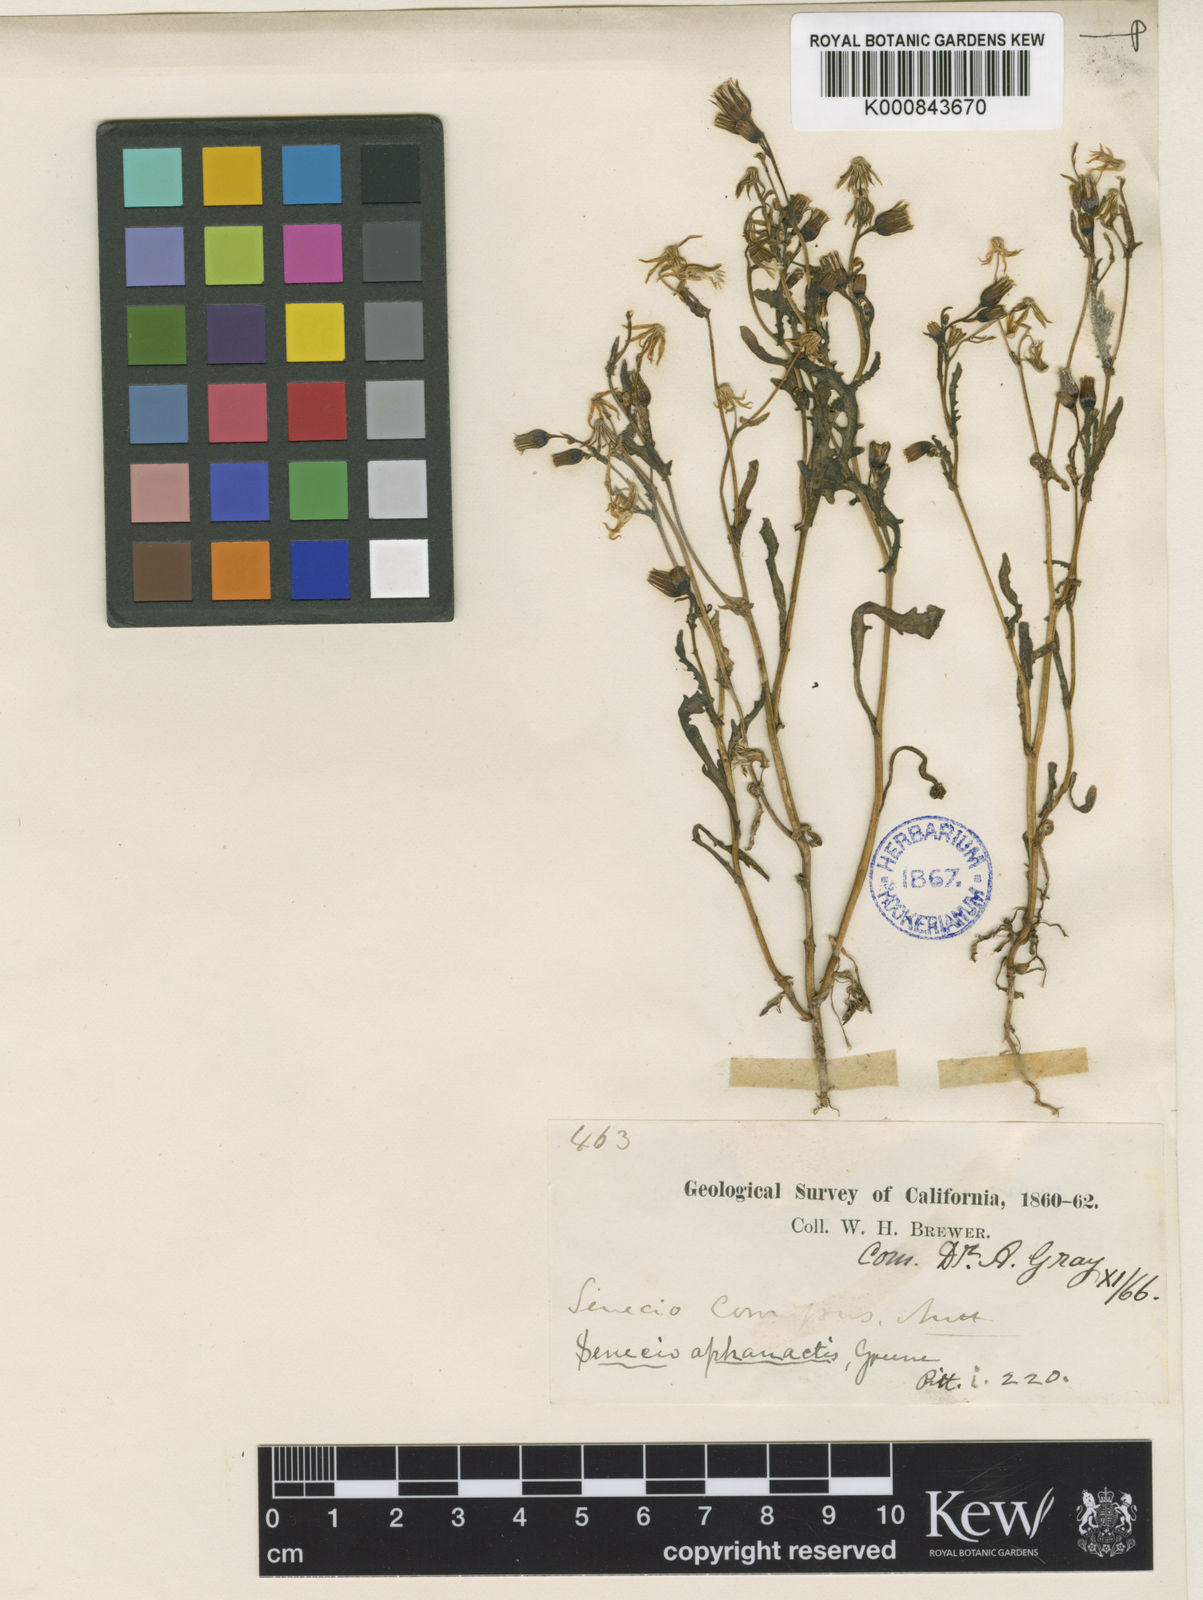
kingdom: Plantae
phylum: Tracheophyta
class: Magnoliopsida
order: Asterales
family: Asteraceae
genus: Senecio
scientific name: Senecio aphanactis
